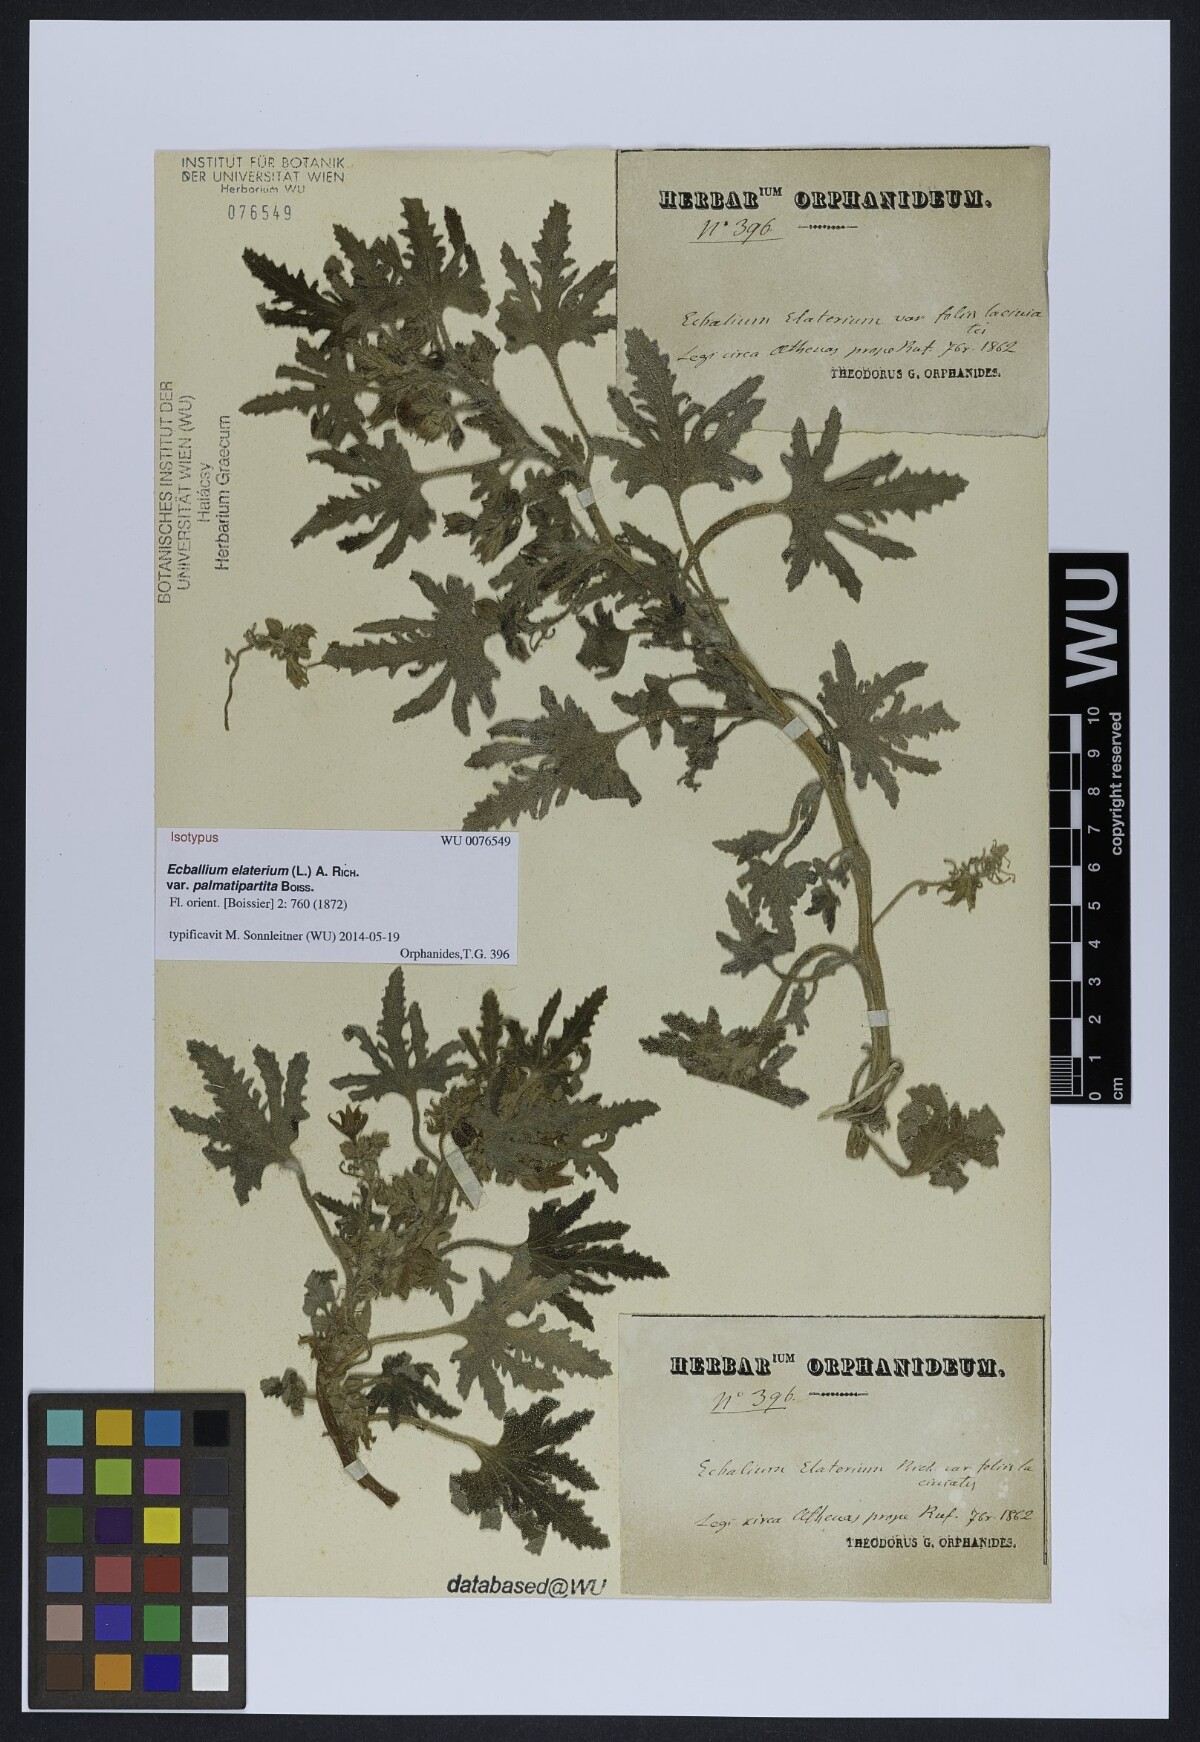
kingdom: Plantae
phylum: Tracheophyta
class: Magnoliopsida
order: Cucurbitales
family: Cucurbitaceae
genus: Ecballium
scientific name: Ecballium elaterium
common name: Squirting cucumber
